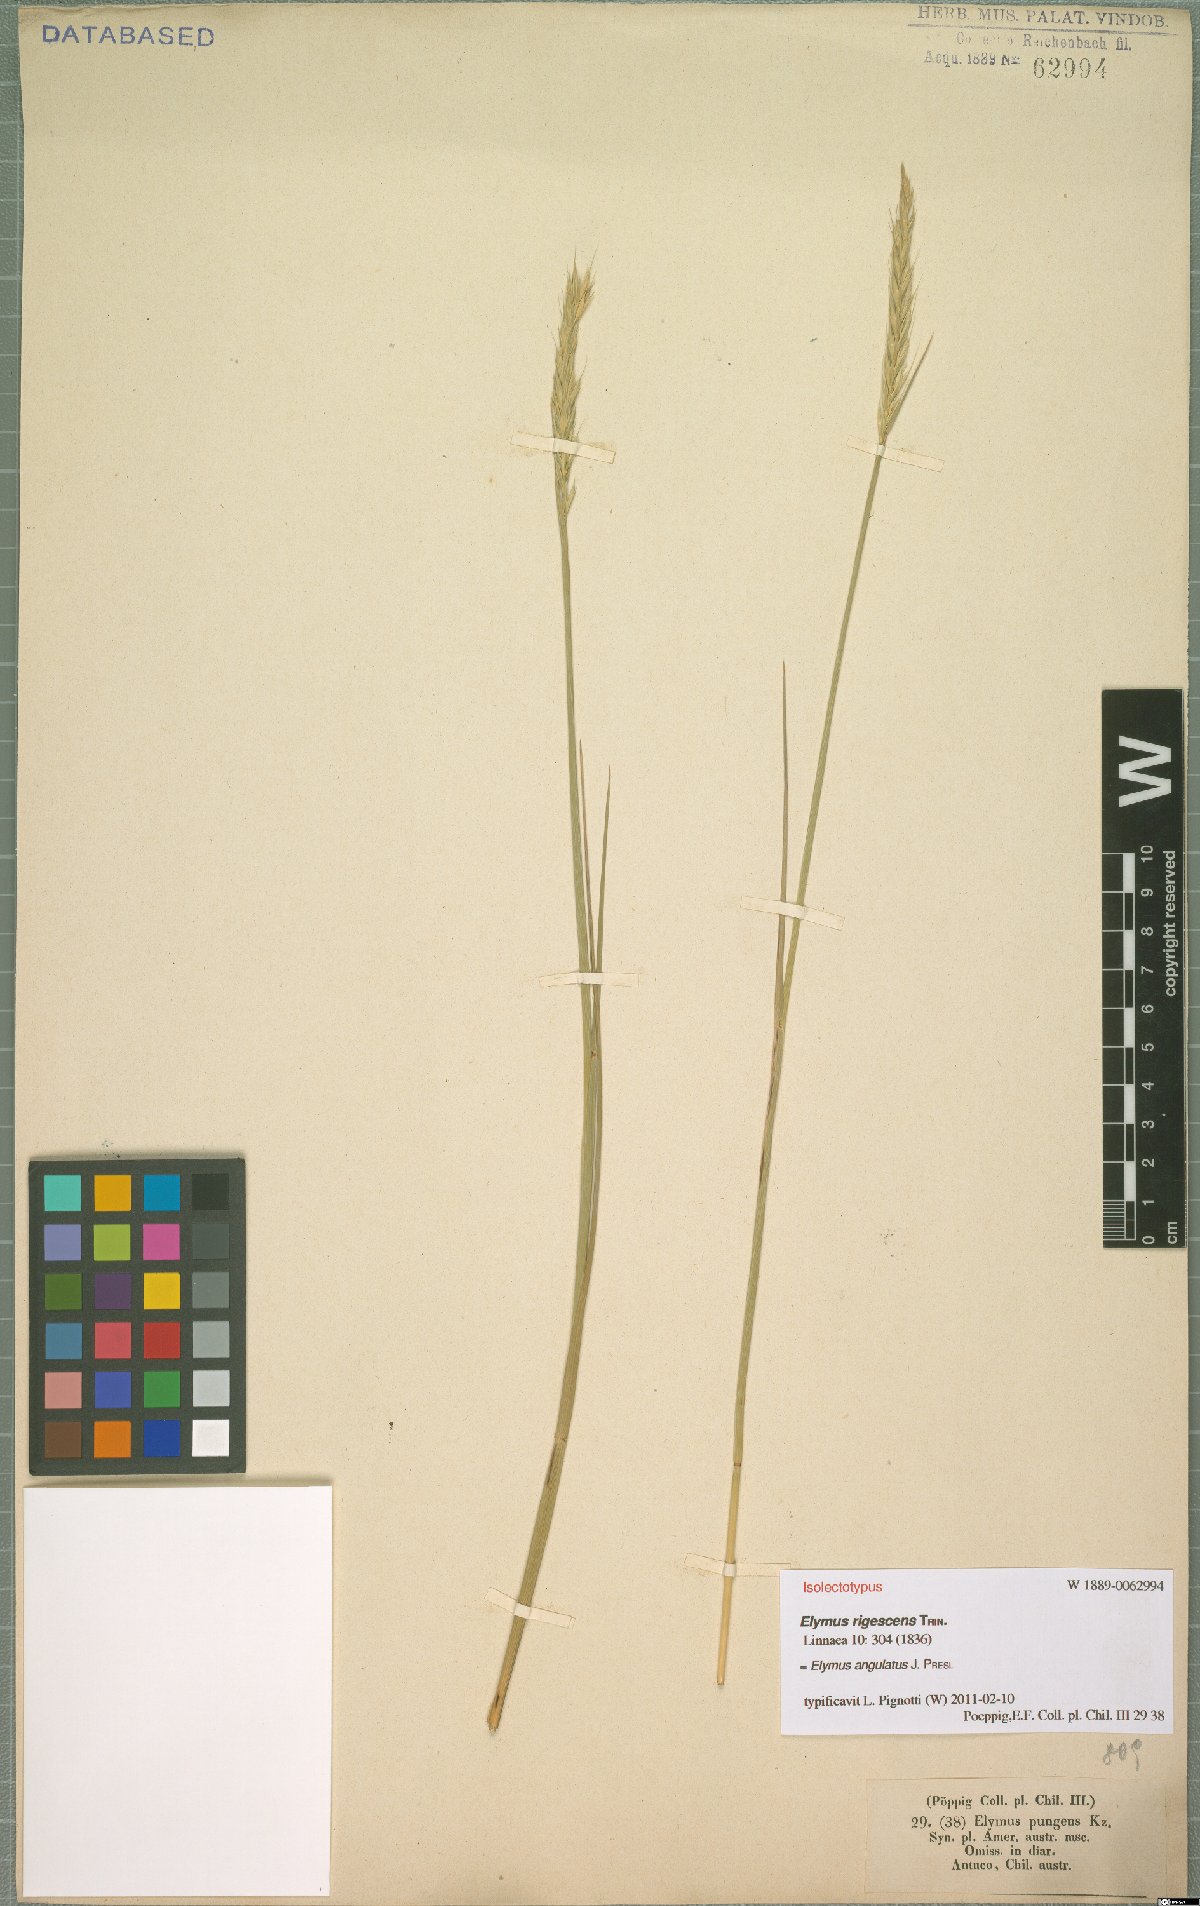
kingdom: Plantae
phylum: Tracheophyta
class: Liliopsida
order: Poales
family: Poaceae
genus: Elymus
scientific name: Elymus angulatus
